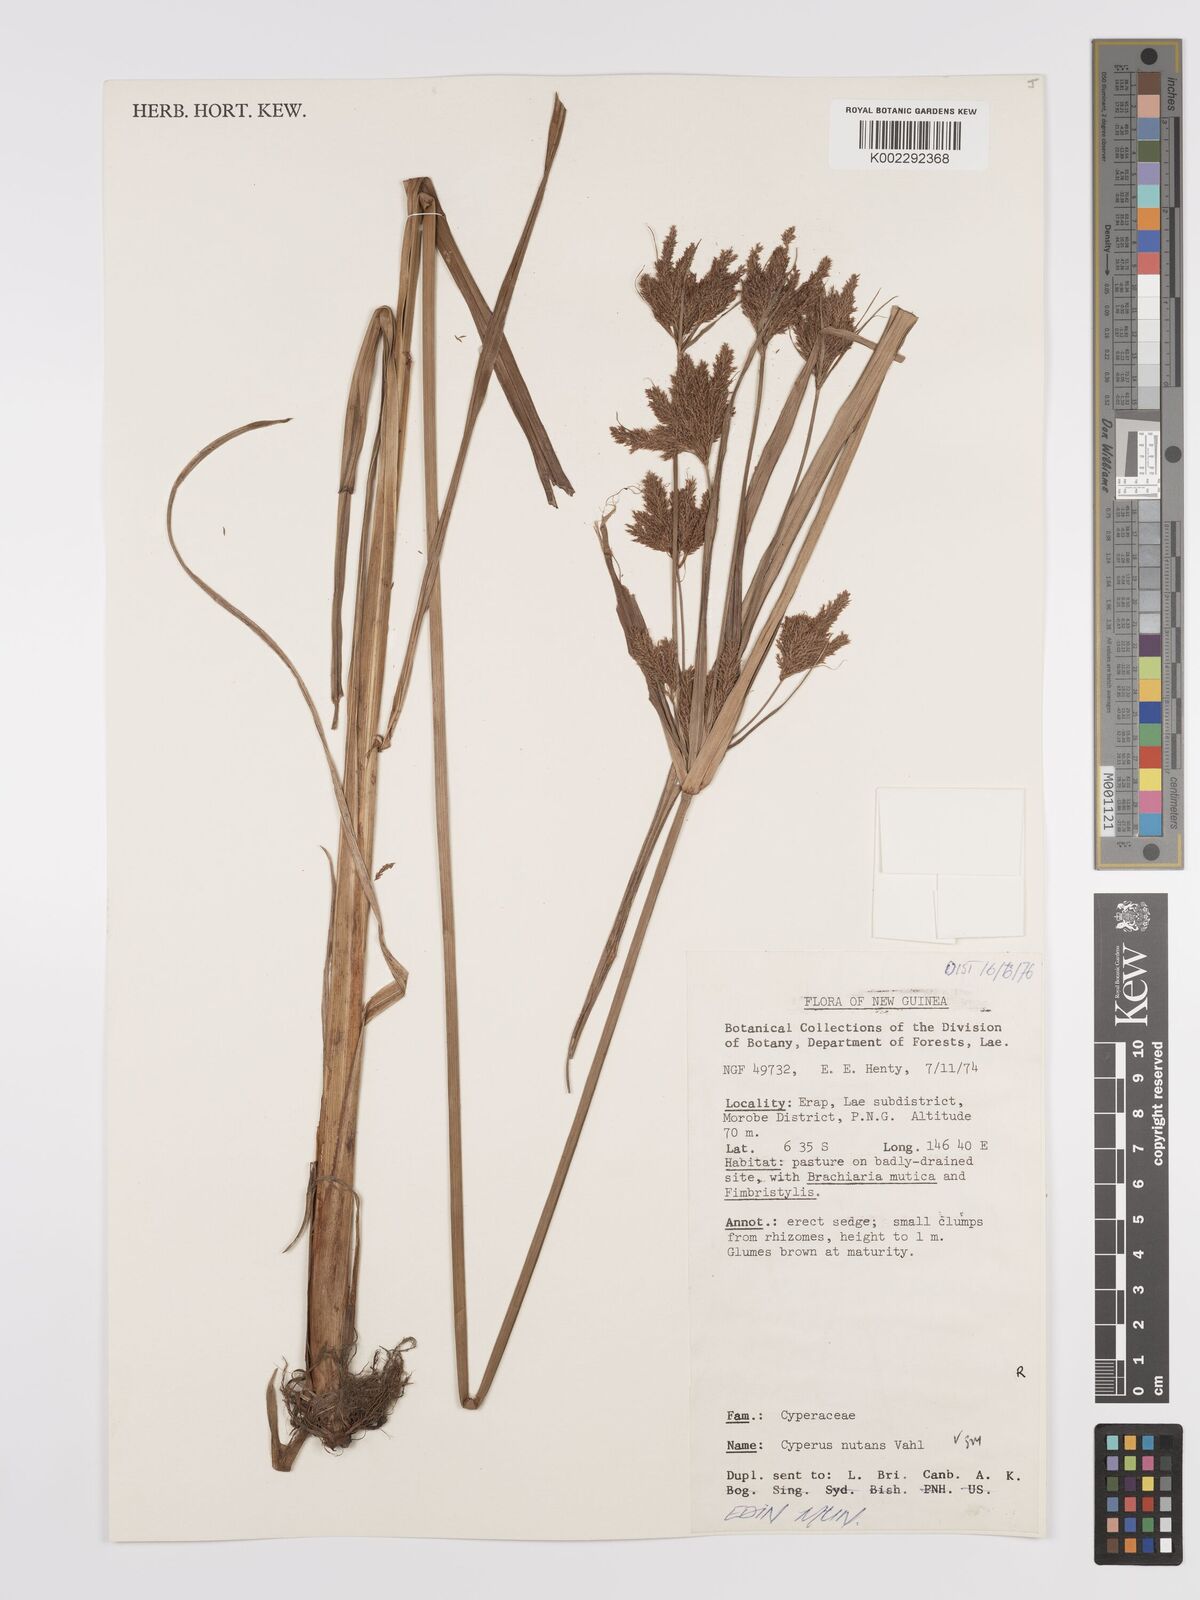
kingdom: Plantae
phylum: Tracheophyta
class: Liliopsida
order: Poales
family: Cyperaceae
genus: Cyperus
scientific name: Cyperus nutans
